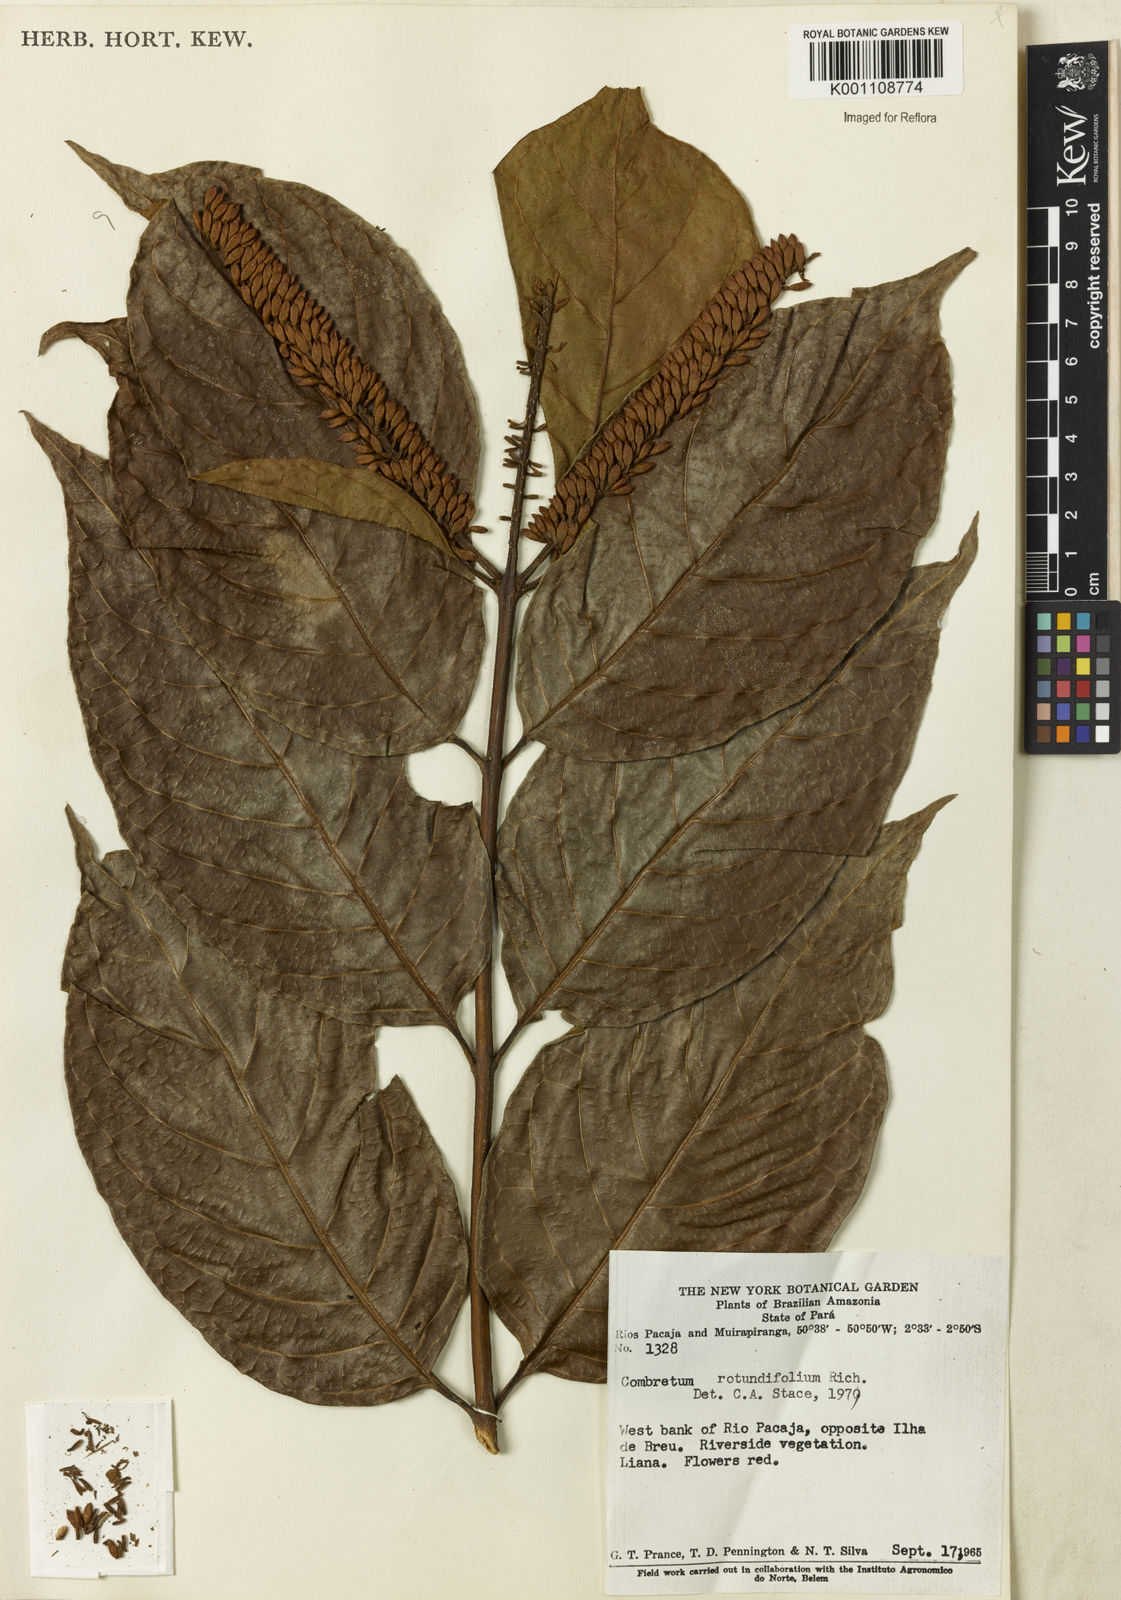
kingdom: Plantae
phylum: Tracheophyta
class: Magnoliopsida
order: Myrtales
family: Combretaceae
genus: Combretum
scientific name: Combretum rotundifolium
